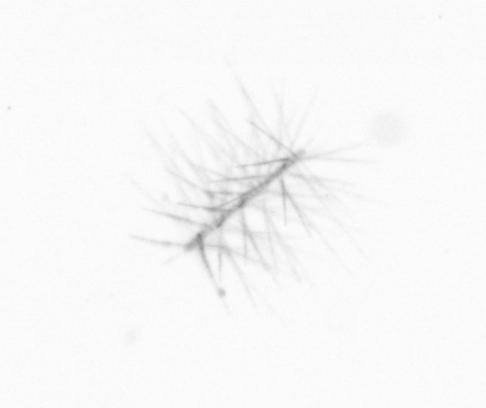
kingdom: Chromista
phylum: Ochrophyta
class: Bacillariophyceae
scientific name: Bacillariophyceae
